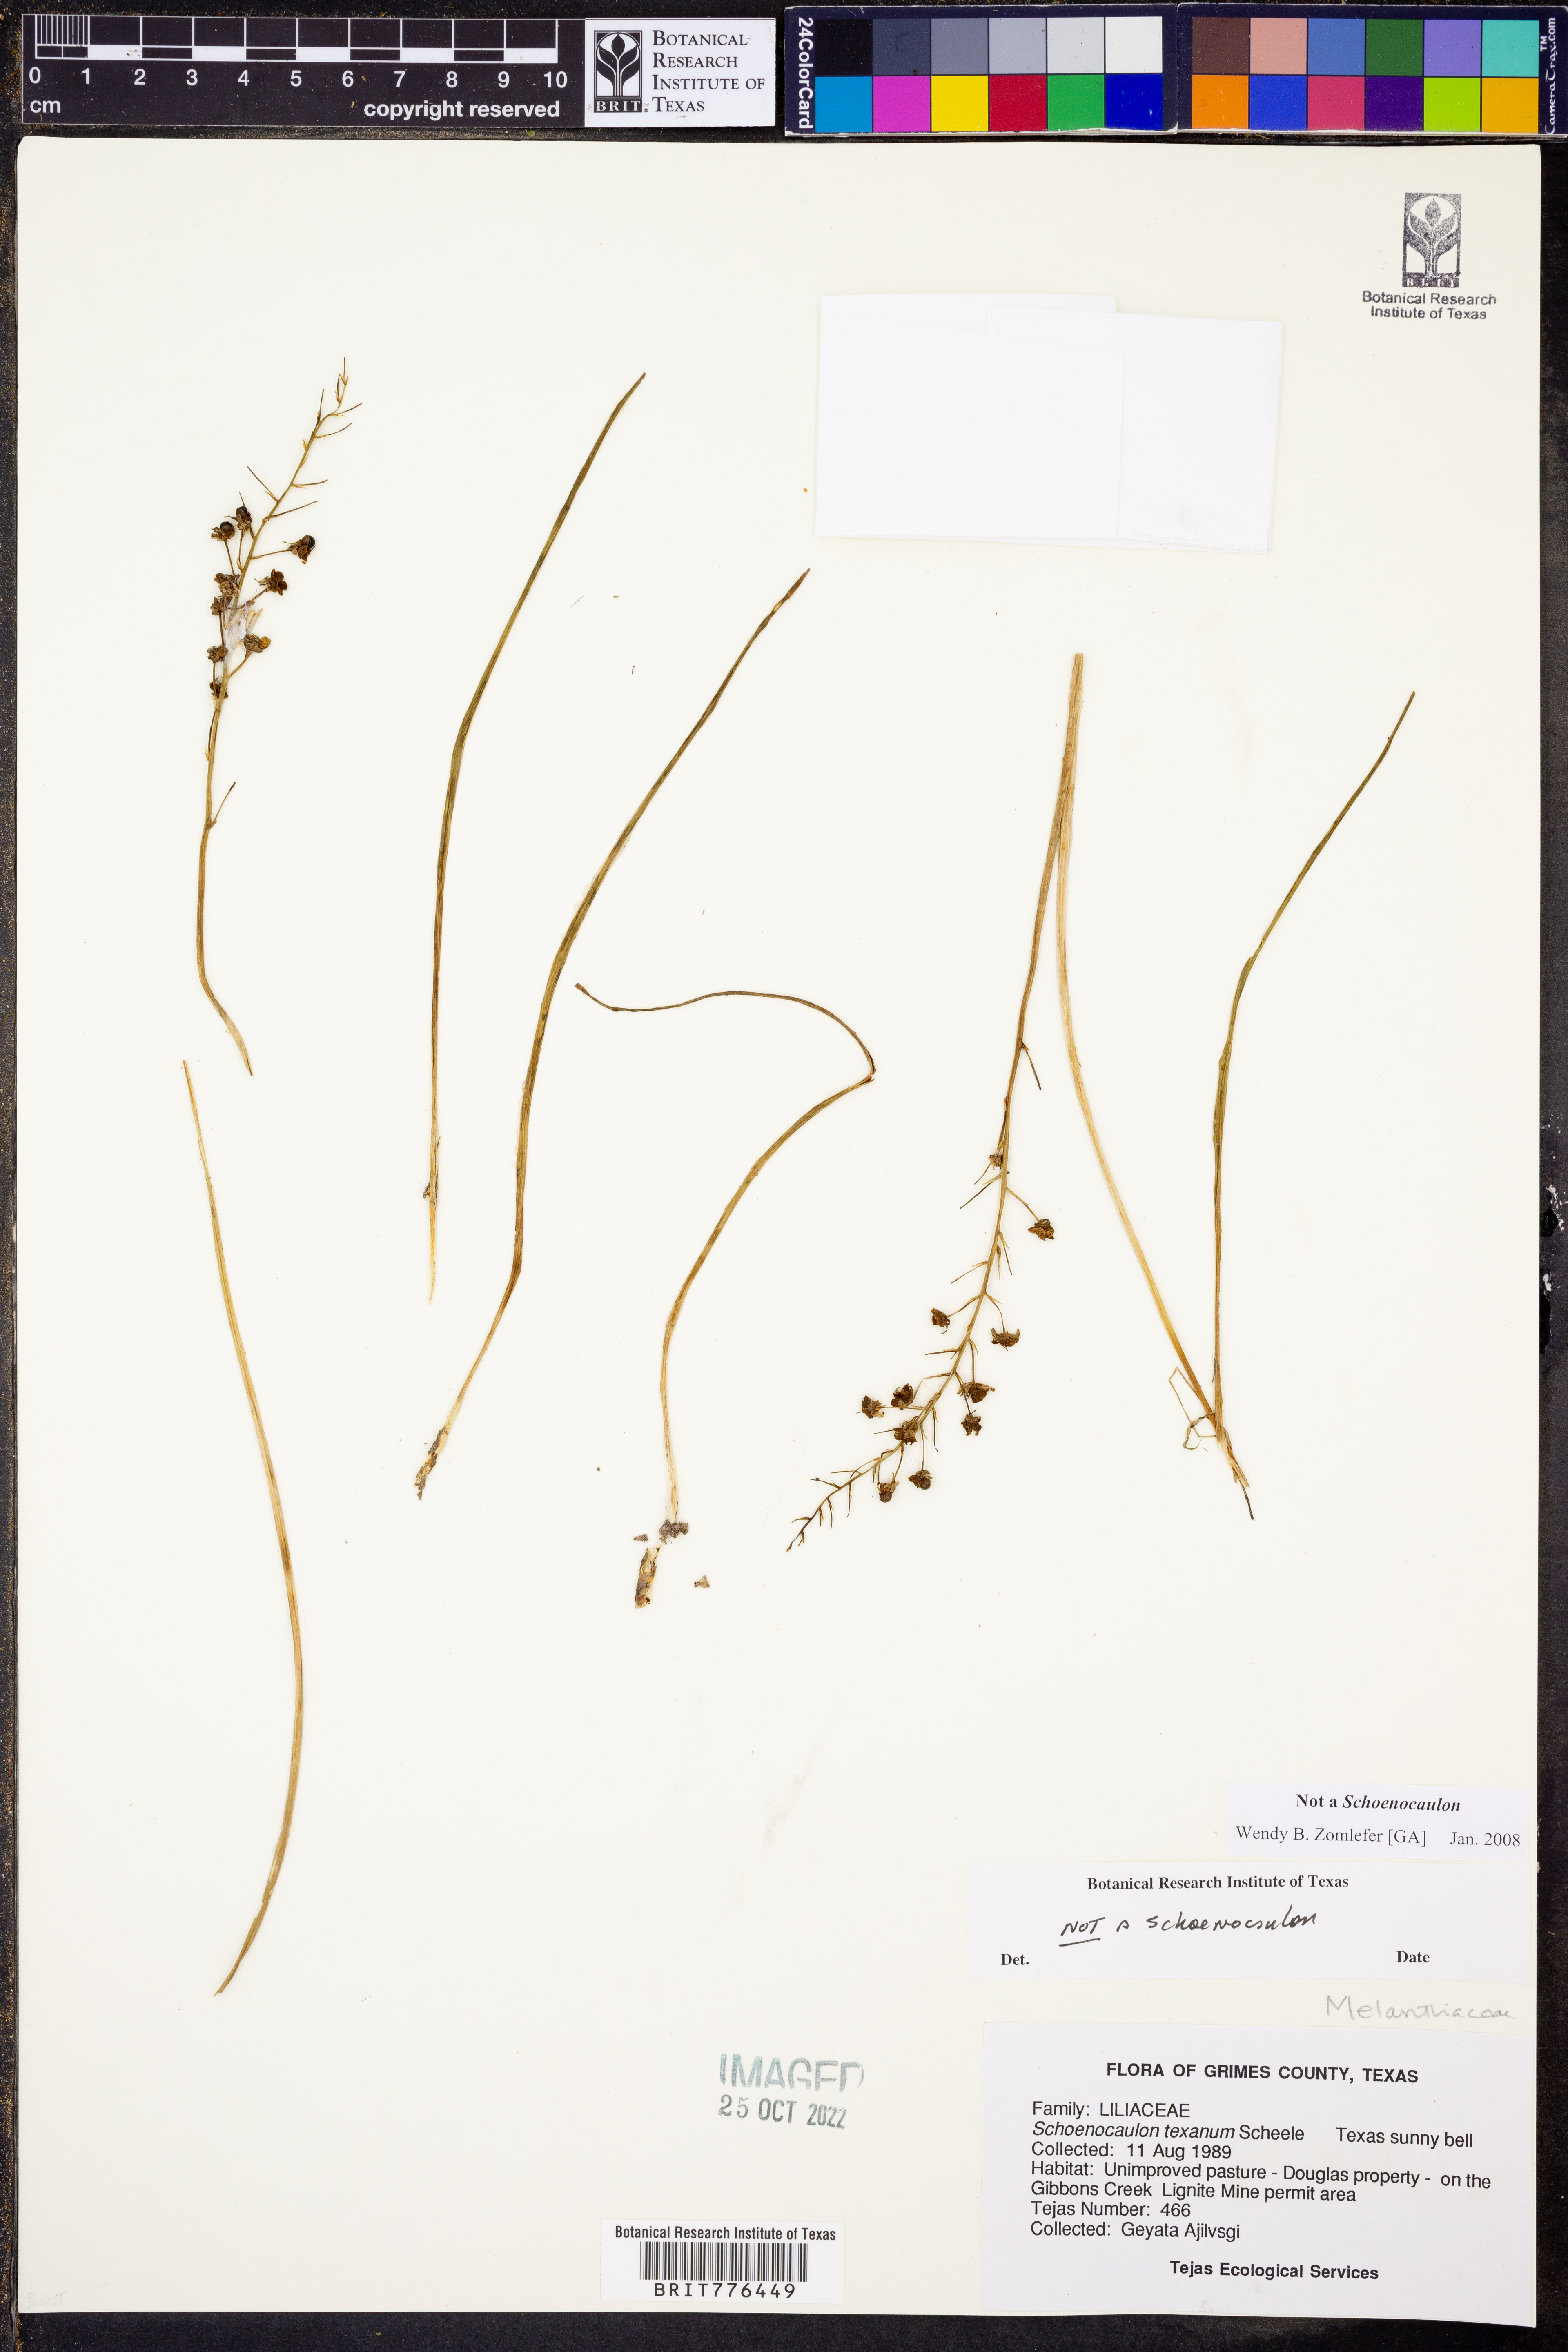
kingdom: Plantae
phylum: Tracheophyta
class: Liliopsida
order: Liliales
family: Liliaceae
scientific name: Liliaceae
